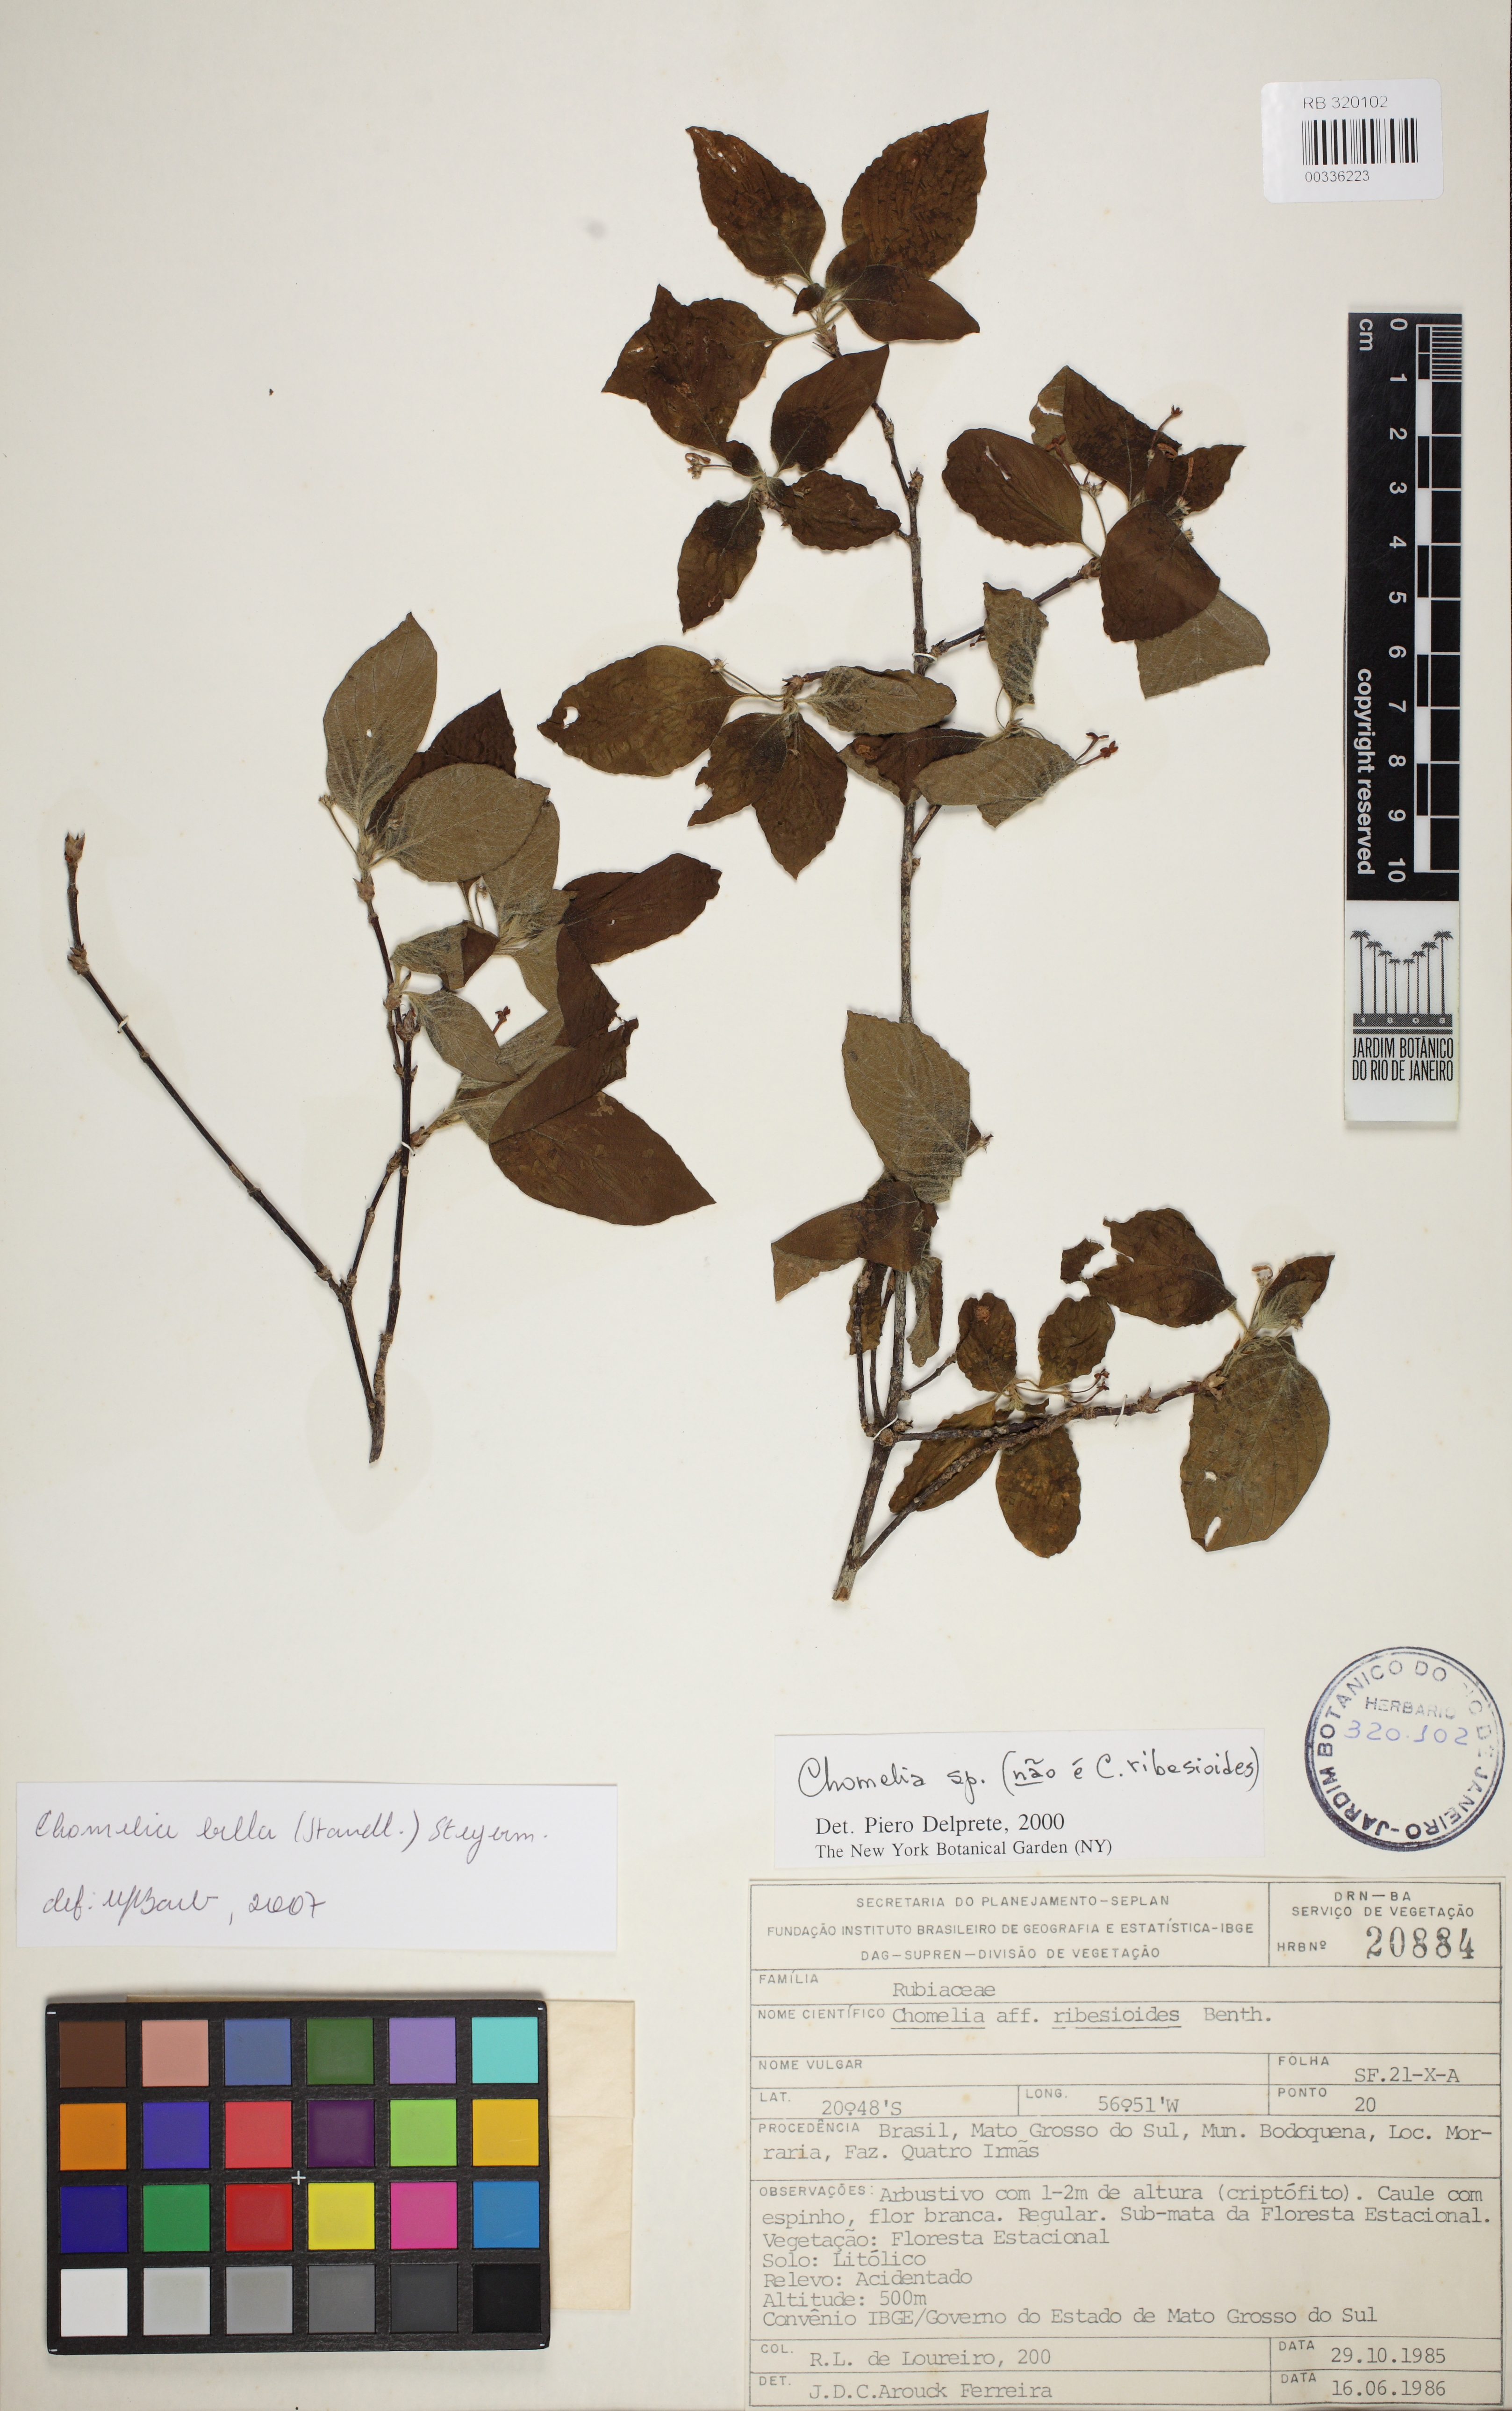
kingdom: Plantae
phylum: Tracheophyta
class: Magnoliopsida
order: Gentianales
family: Rubiaceae
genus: Chomelia
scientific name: Chomelia bella
